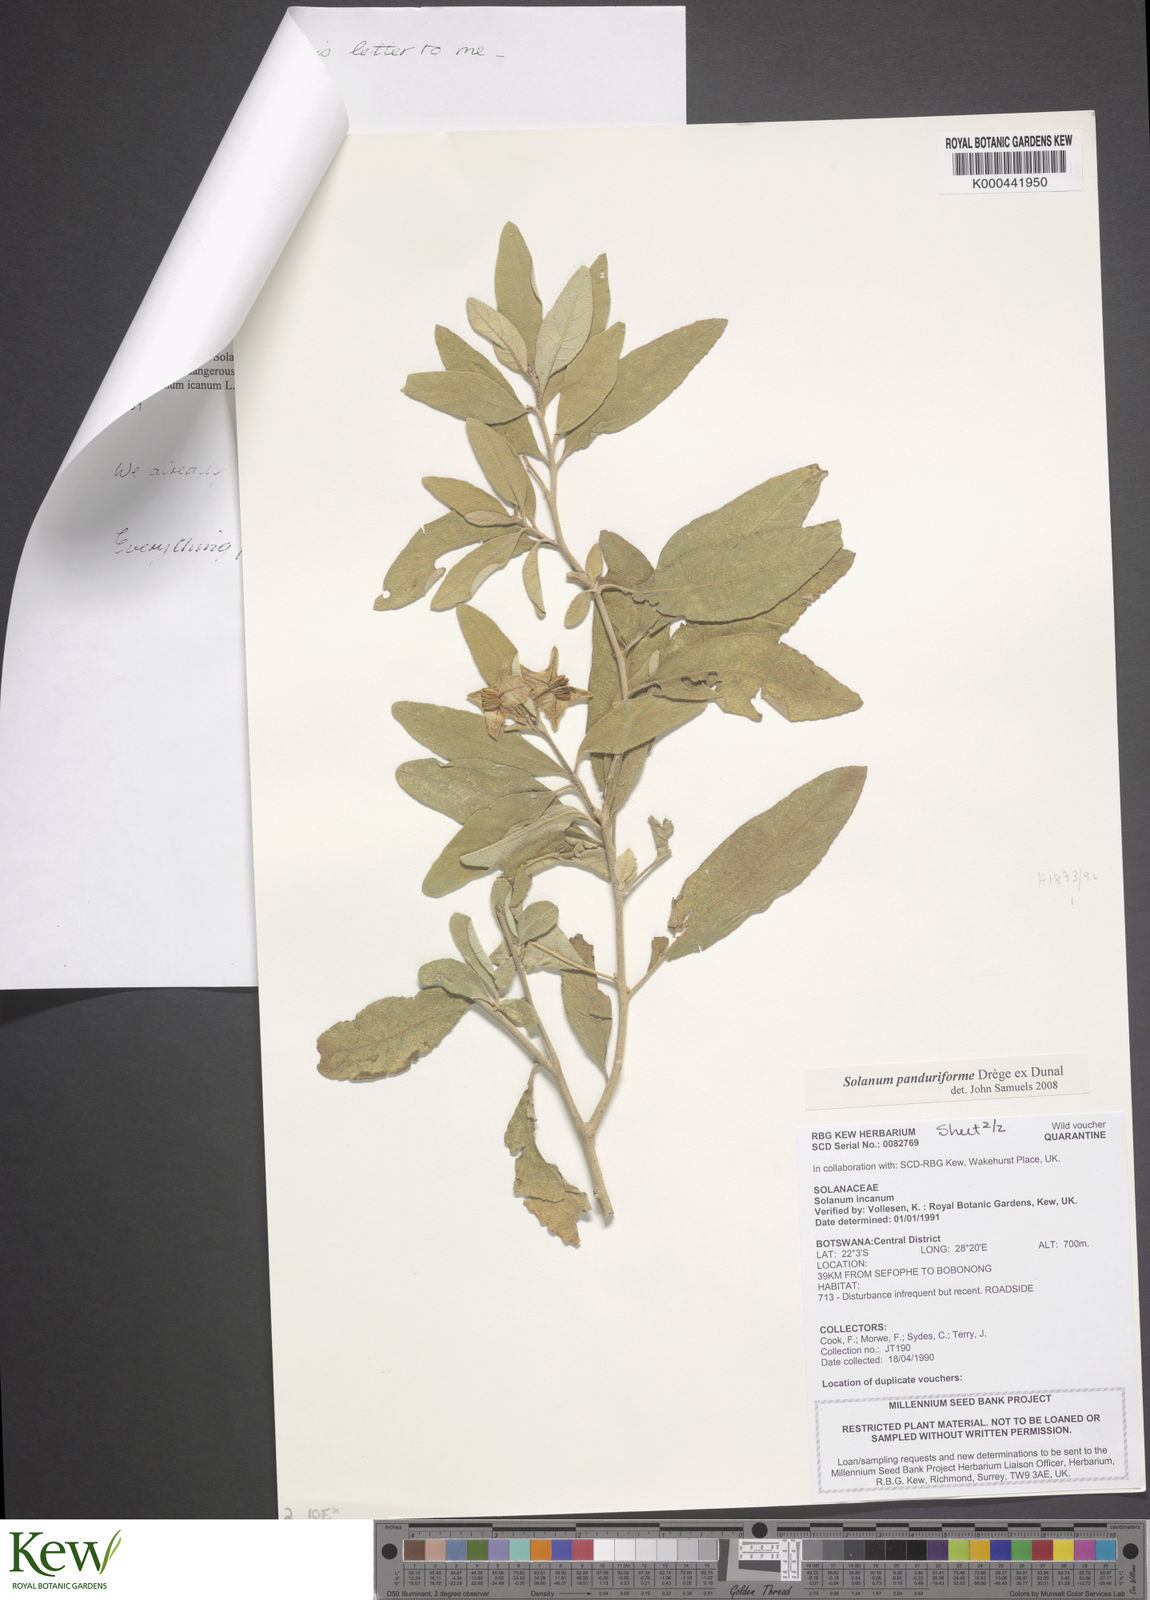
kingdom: Plantae
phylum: Tracheophyta
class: Magnoliopsida
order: Solanales
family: Solanaceae
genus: Solanum
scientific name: Solanum campylacanthum
